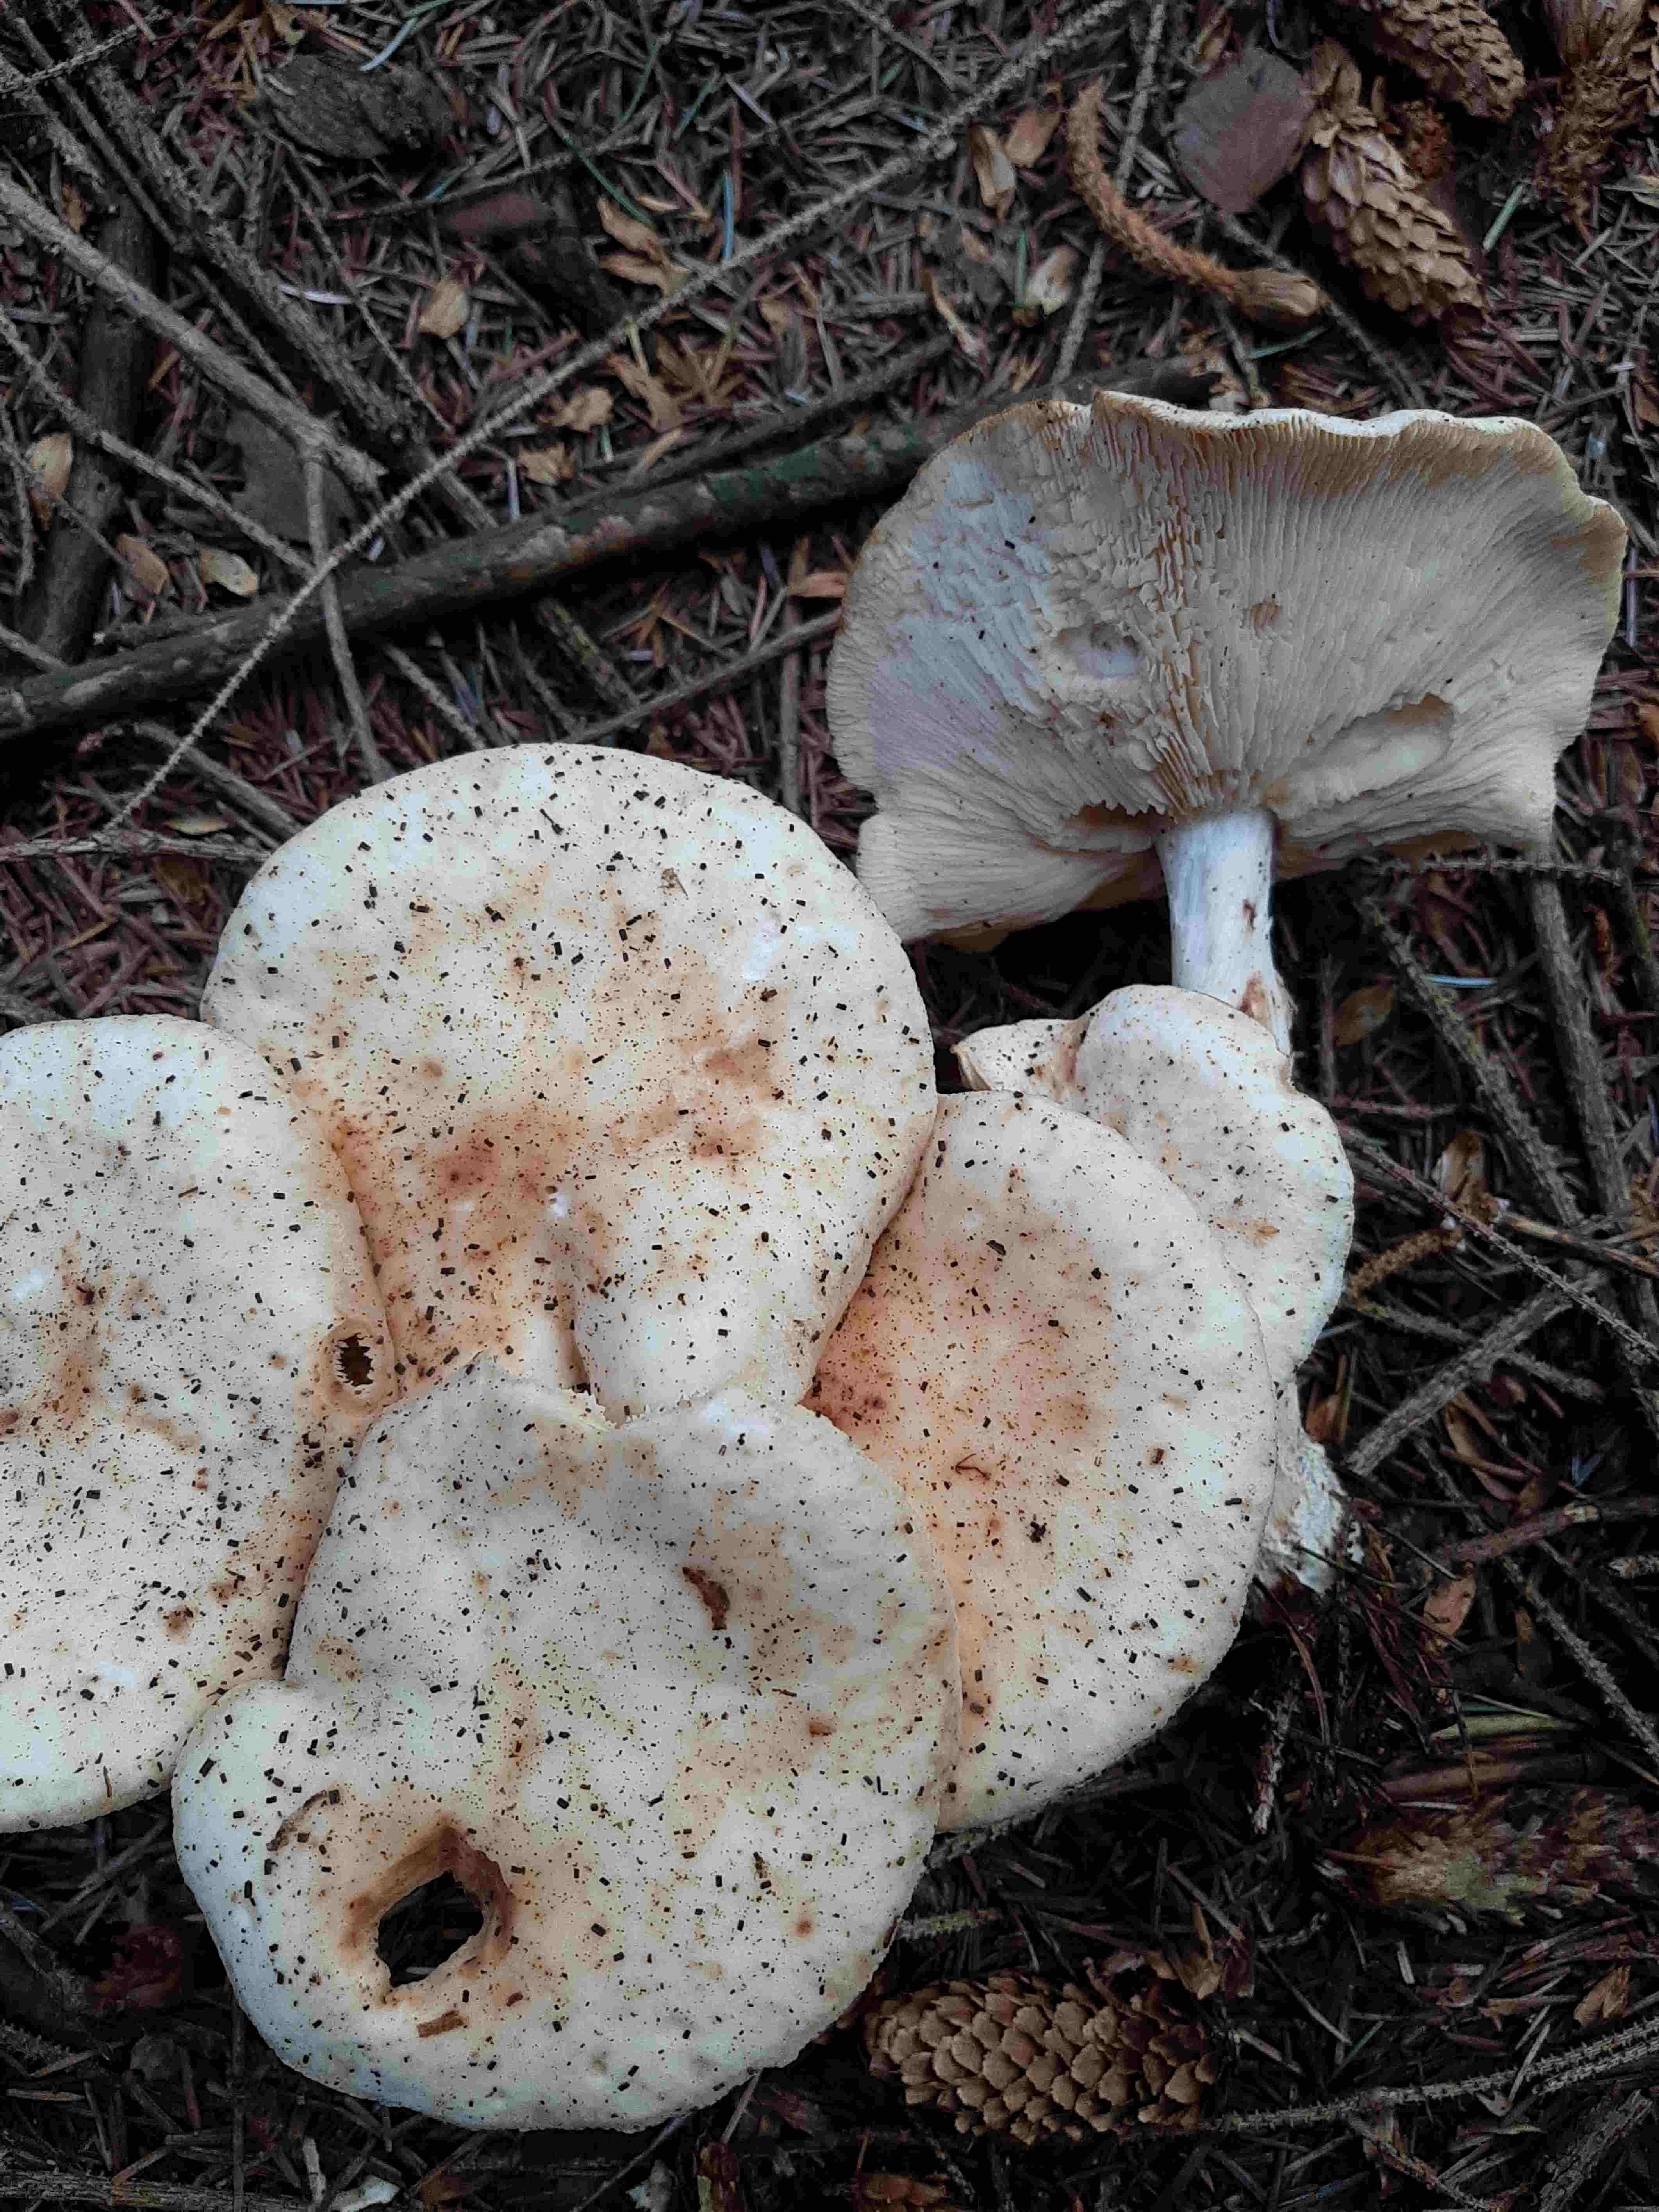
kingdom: Fungi
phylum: Basidiomycota
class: Agaricomycetes
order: Agaricales
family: Omphalotaceae
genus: Rhodocollybia
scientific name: Rhodocollybia maculata
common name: plettet fladhat
